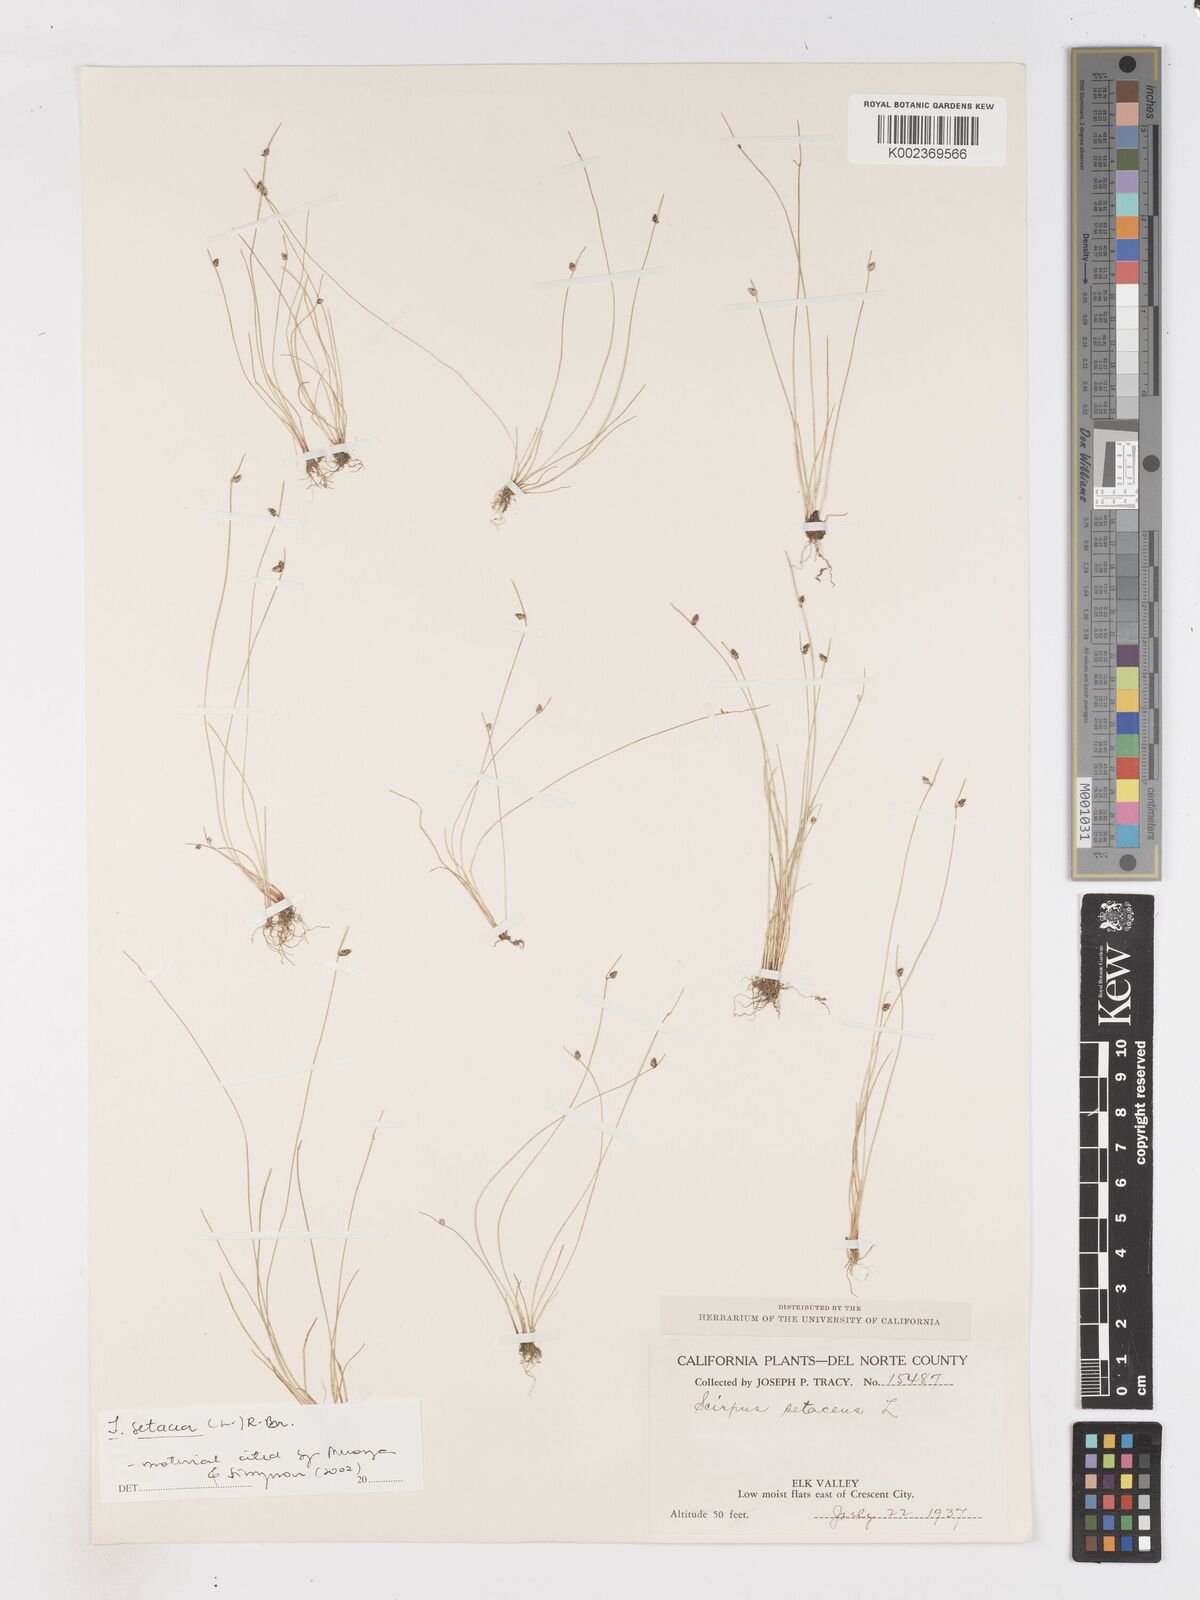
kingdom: Plantae
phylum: Tracheophyta
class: Liliopsida
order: Poales
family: Cyperaceae
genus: Isolepis
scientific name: Isolepis setacea
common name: Bristle club-rush
